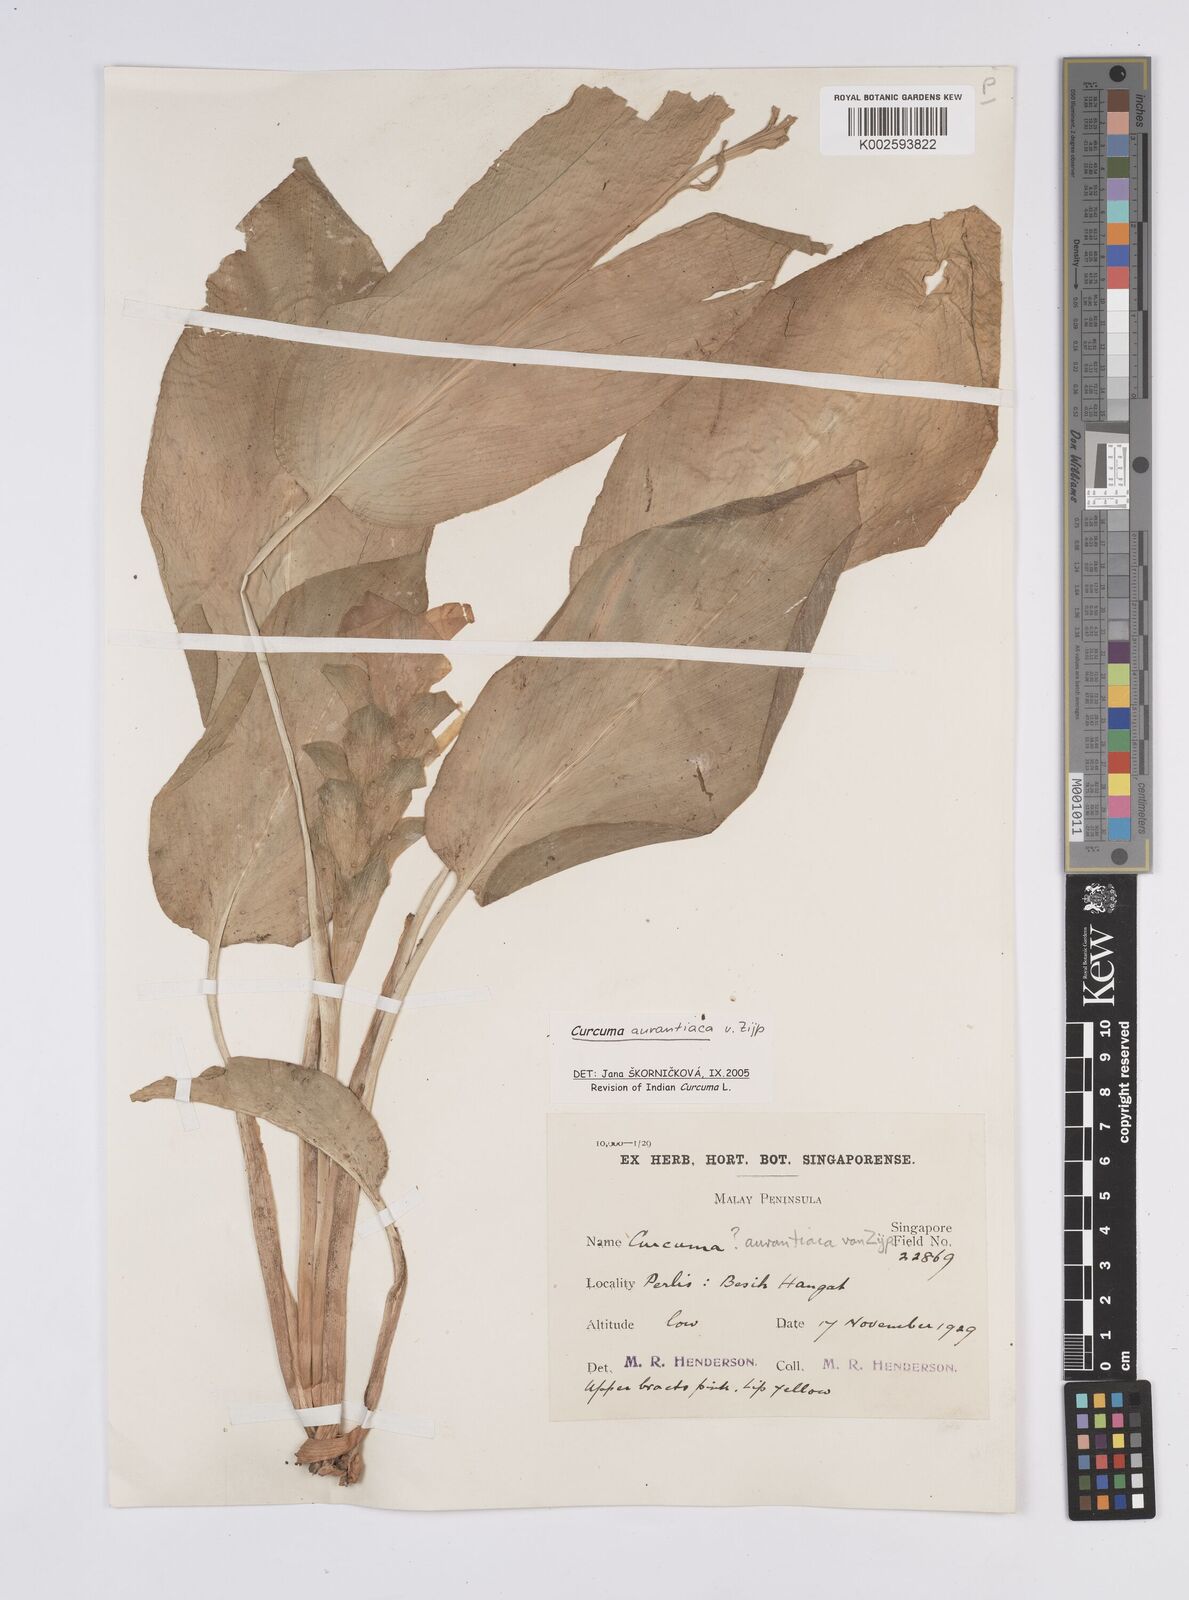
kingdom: Plantae
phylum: Tracheophyta
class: Liliopsida
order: Zingiberales
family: Zingiberaceae
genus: Curcuma
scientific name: Curcuma aurantiaca
